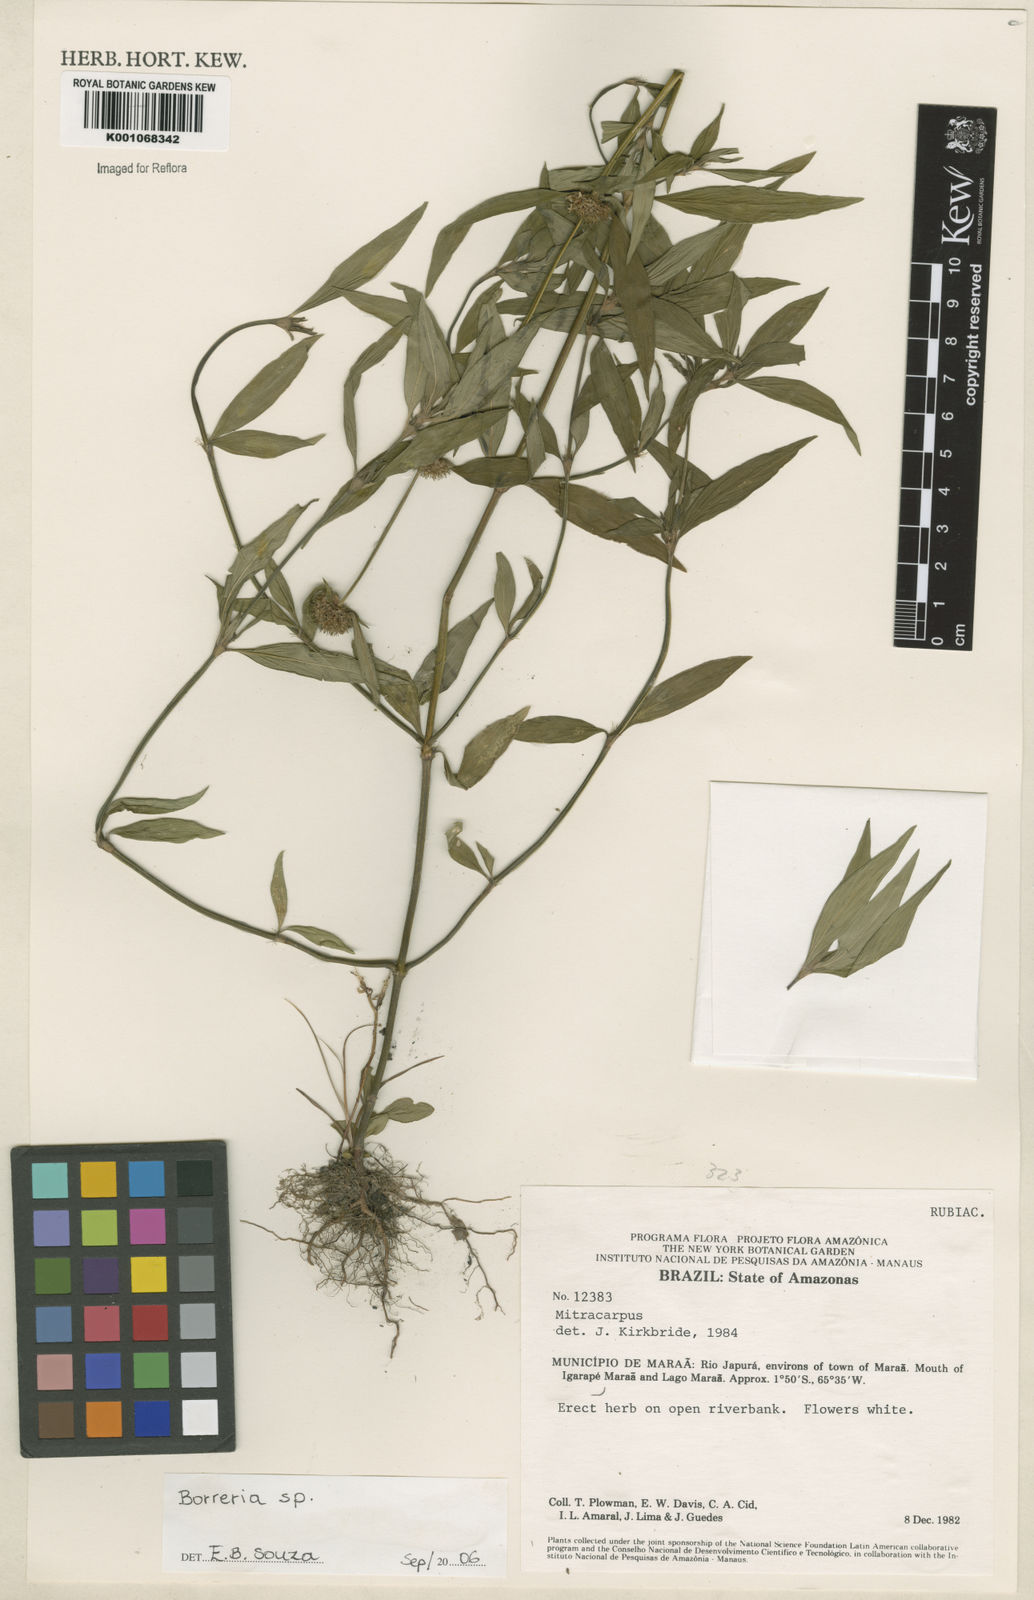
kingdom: Plantae
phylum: Tracheophyta
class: Magnoliopsida
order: Gentianales
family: Rubiaceae
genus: Spermacoce
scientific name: Spermacoce
